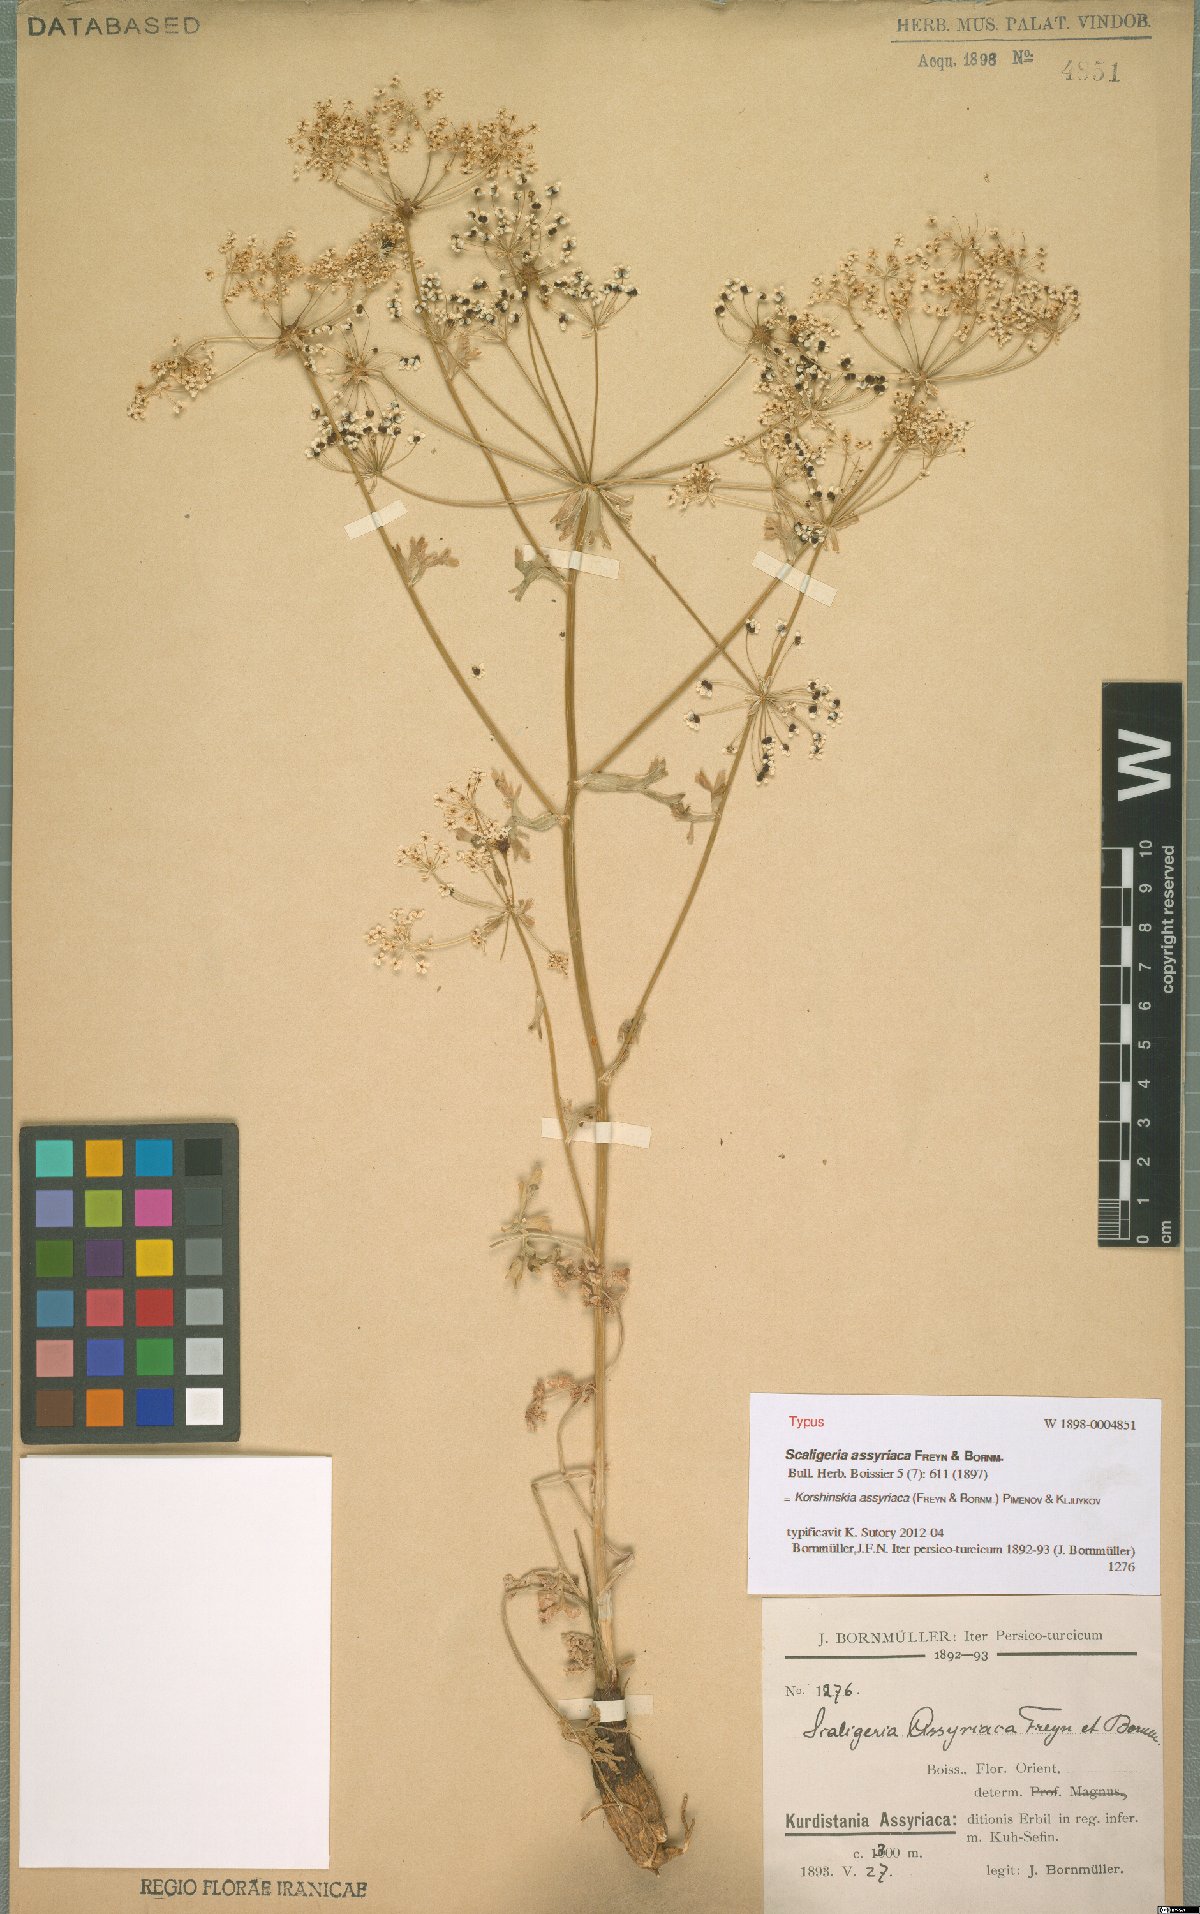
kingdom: Plantae
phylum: Tracheophyta
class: Magnoliopsida
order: Apiales
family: Apiaceae
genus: Korshinskia
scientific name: Korshinskia assyriaca
